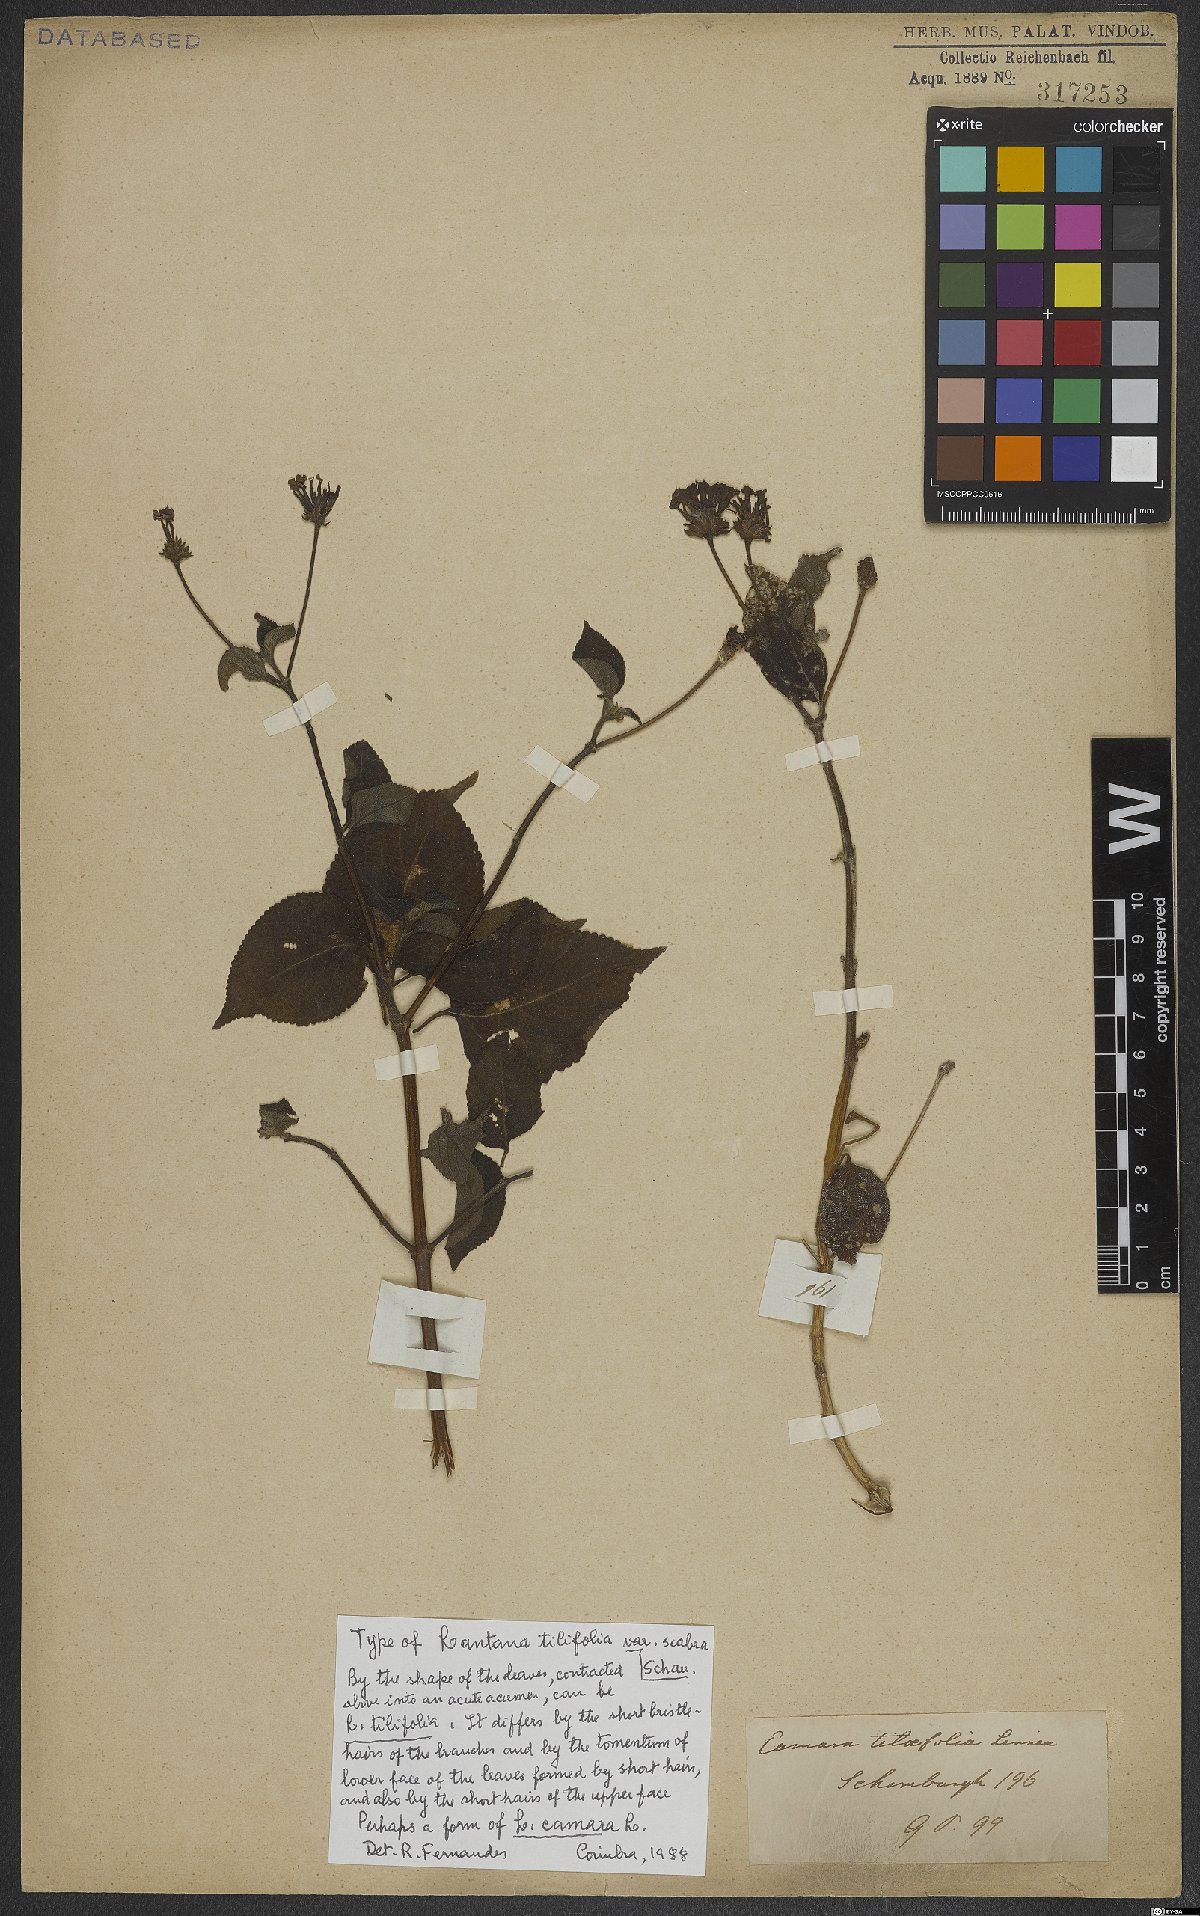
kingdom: Plantae
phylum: Tracheophyta
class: Magnoliopsida
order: Lamiales
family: Verbenaceae
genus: Lantana
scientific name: Lantana horrida
